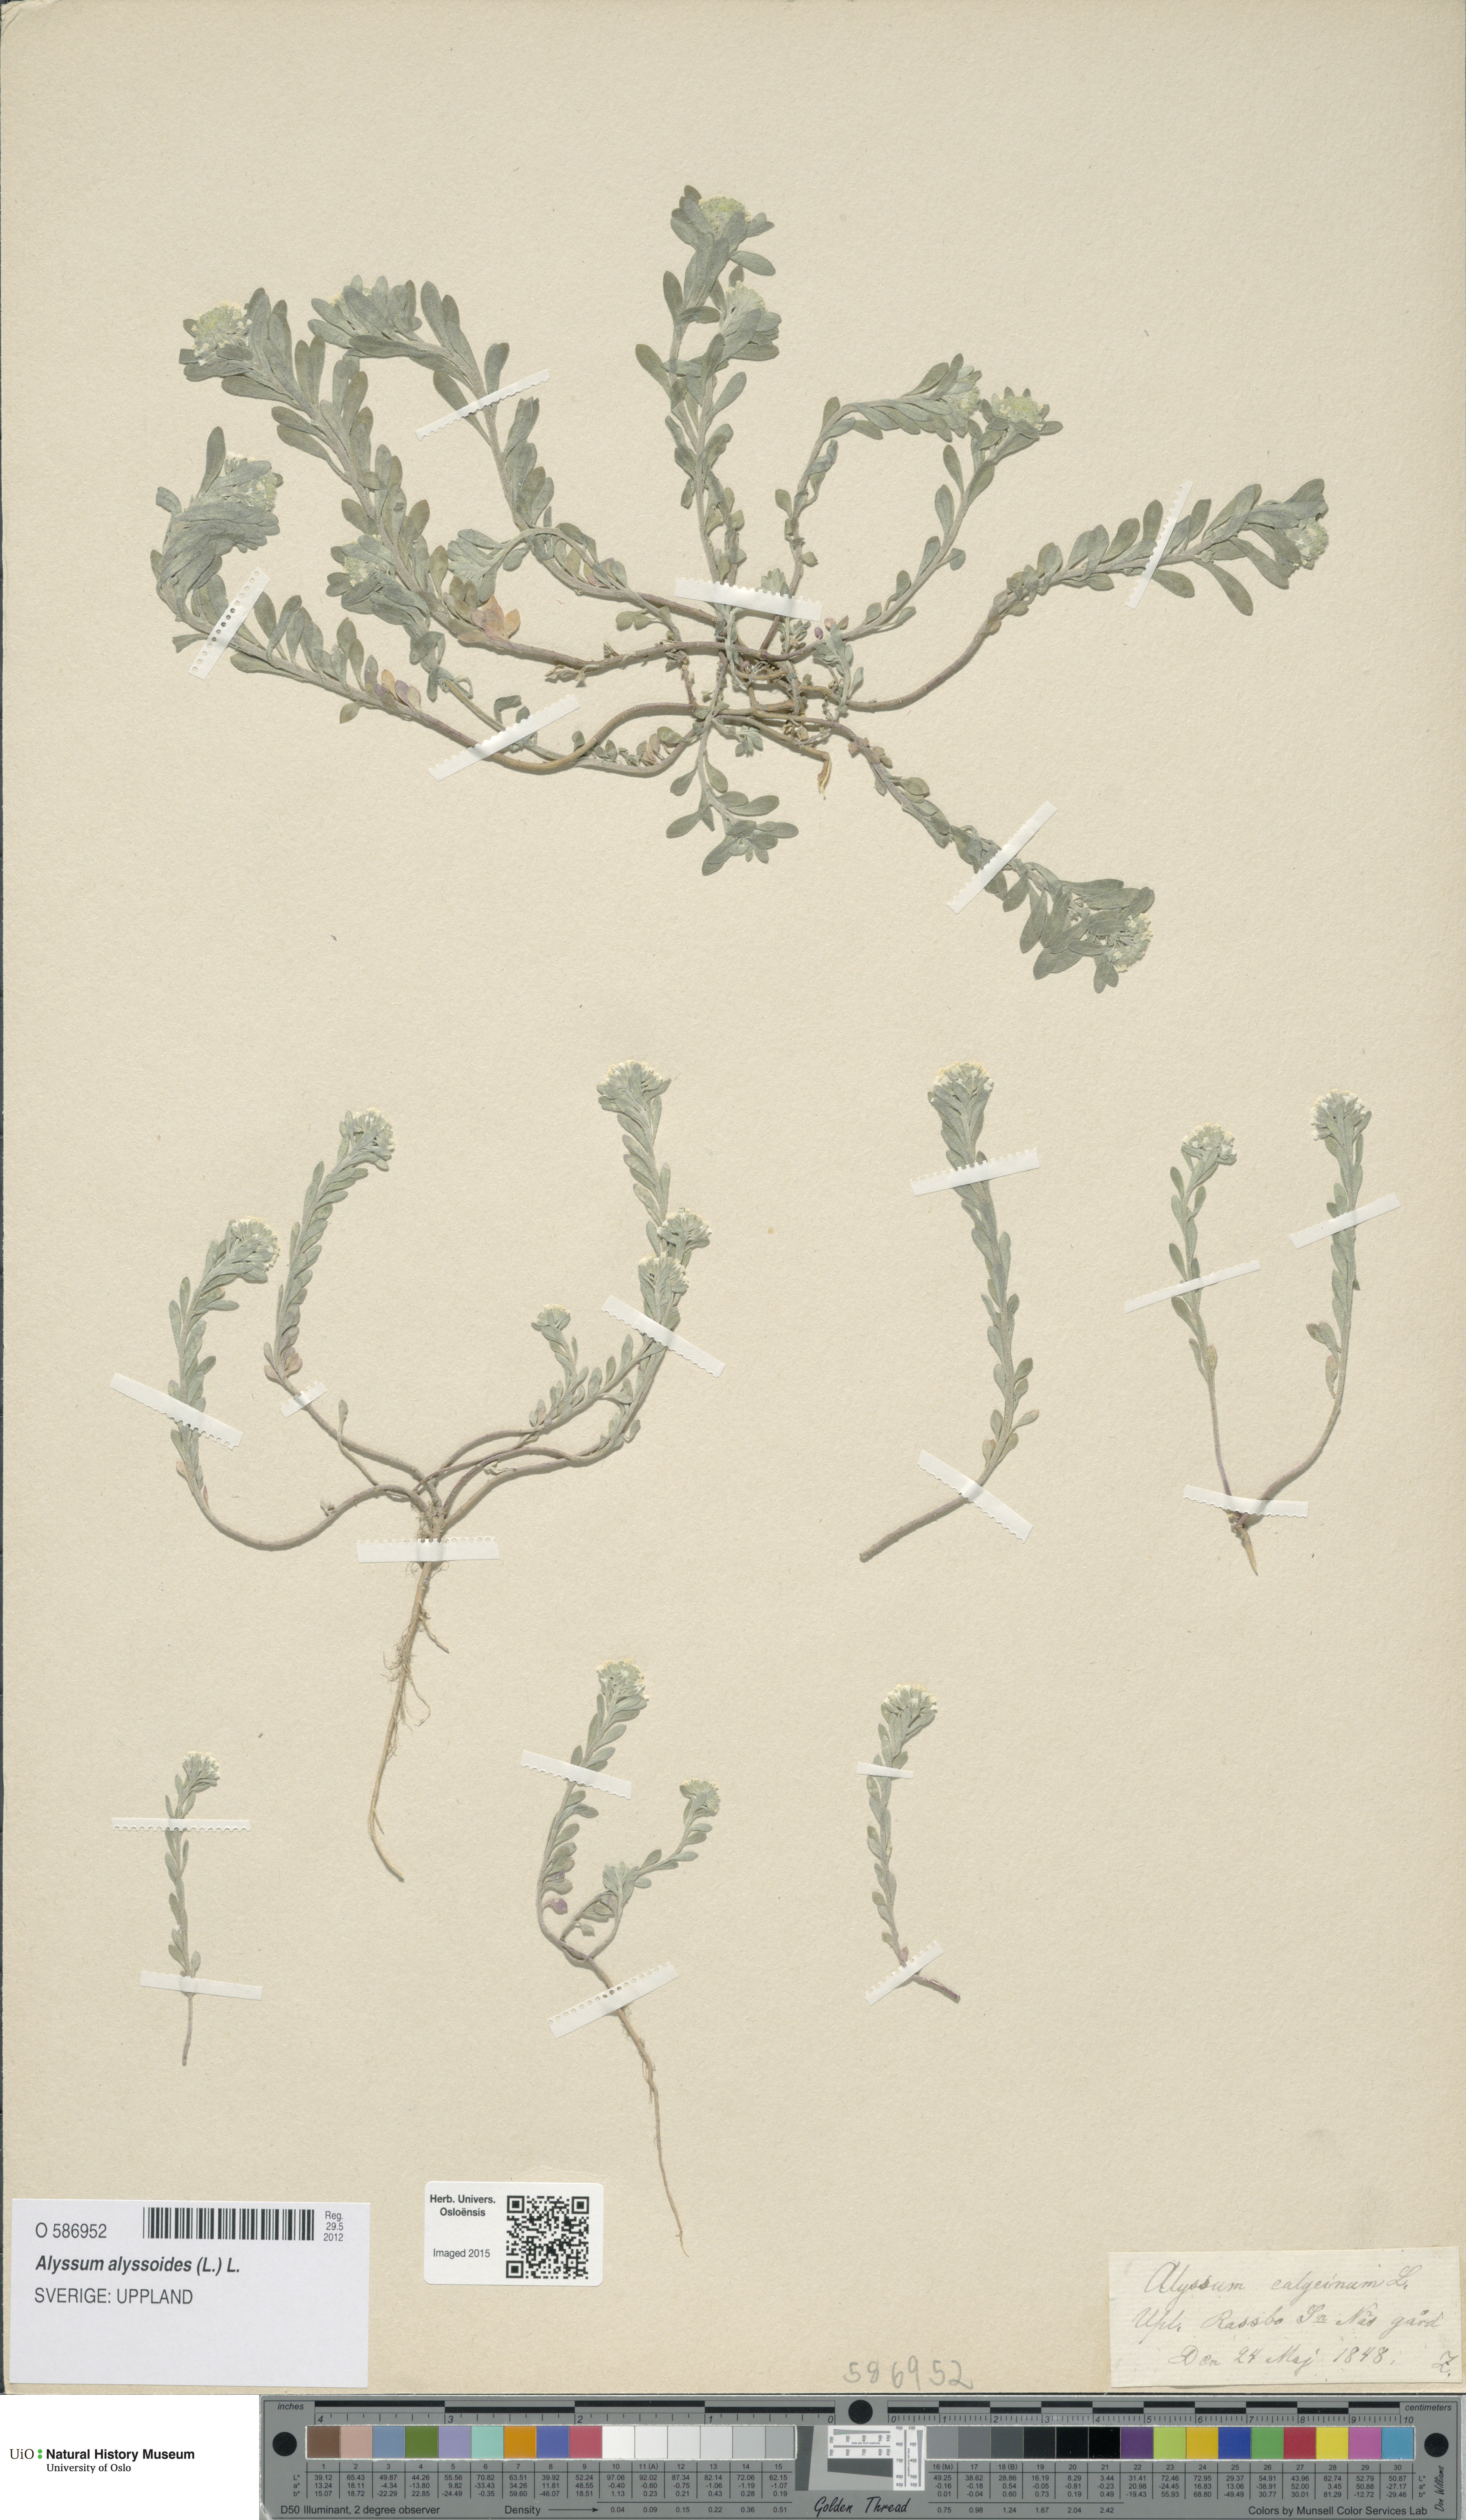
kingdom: Plantae
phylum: Tracheophyta
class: Magnoliopsida
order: Brassicales
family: Brassicaceae
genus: Alyssum
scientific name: Alyssum alyssoides
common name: Small alison
